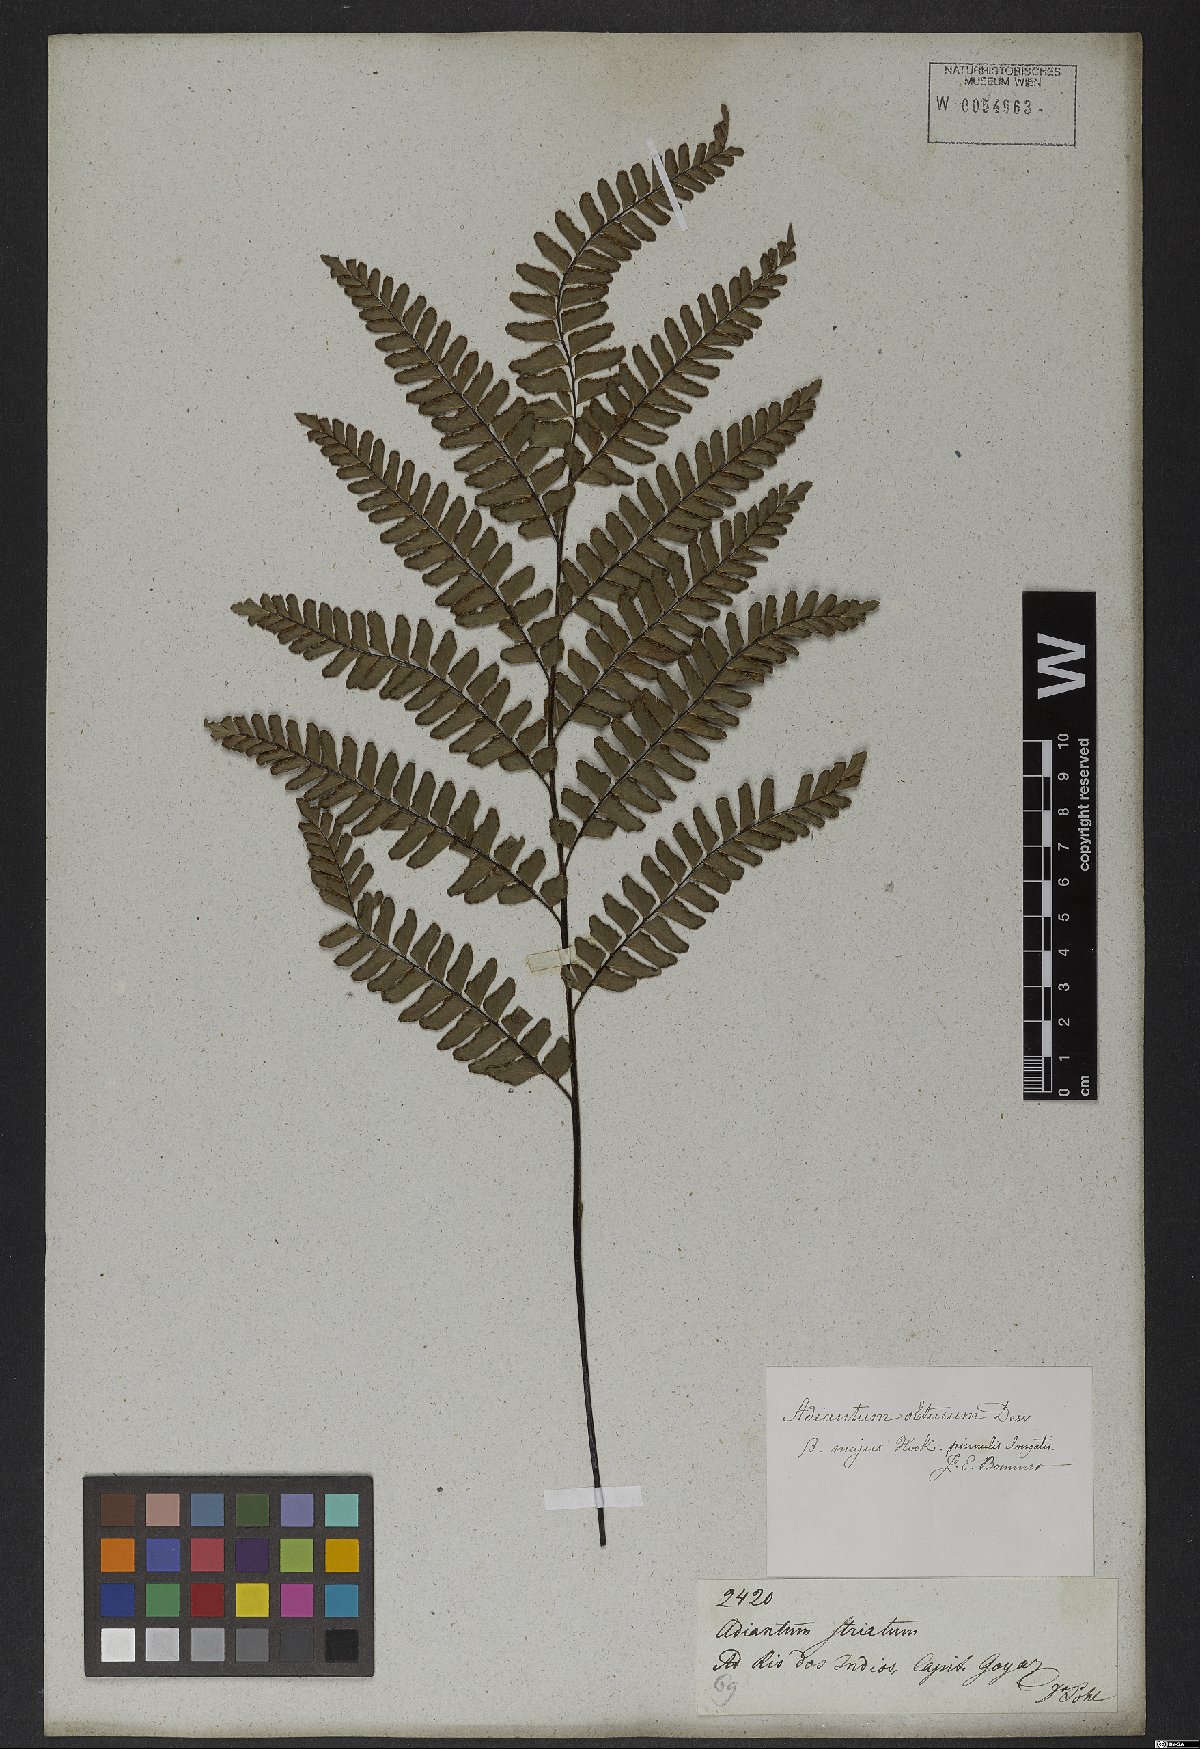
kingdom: Plantae
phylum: Tracheophyta
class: Polypodiopsida
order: Polypodiales
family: Pteridaceae
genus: Adiantum
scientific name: Adiantum serratodentatum
